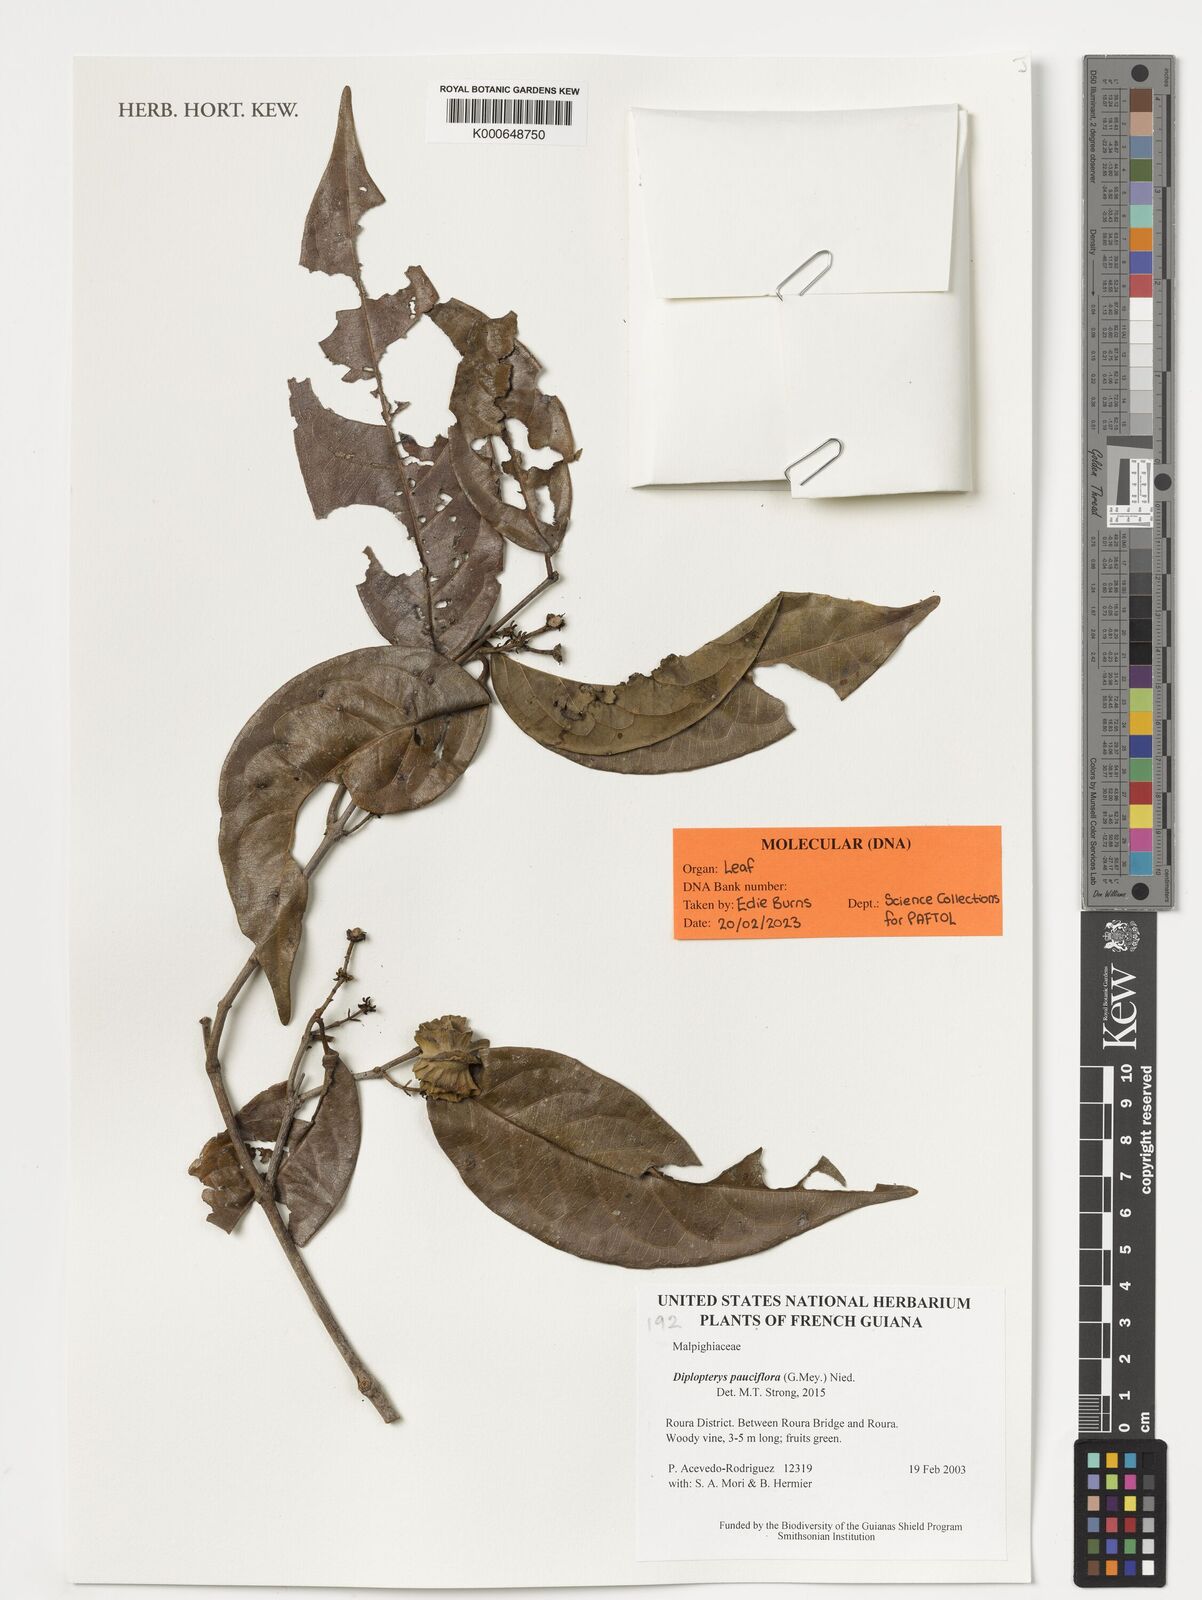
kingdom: Plantae
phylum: Tracheophyta
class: Magnoliopsida
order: Malpighiales
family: Malpighiaceae
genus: Diplopterys
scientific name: Diplopterys pauciflora
